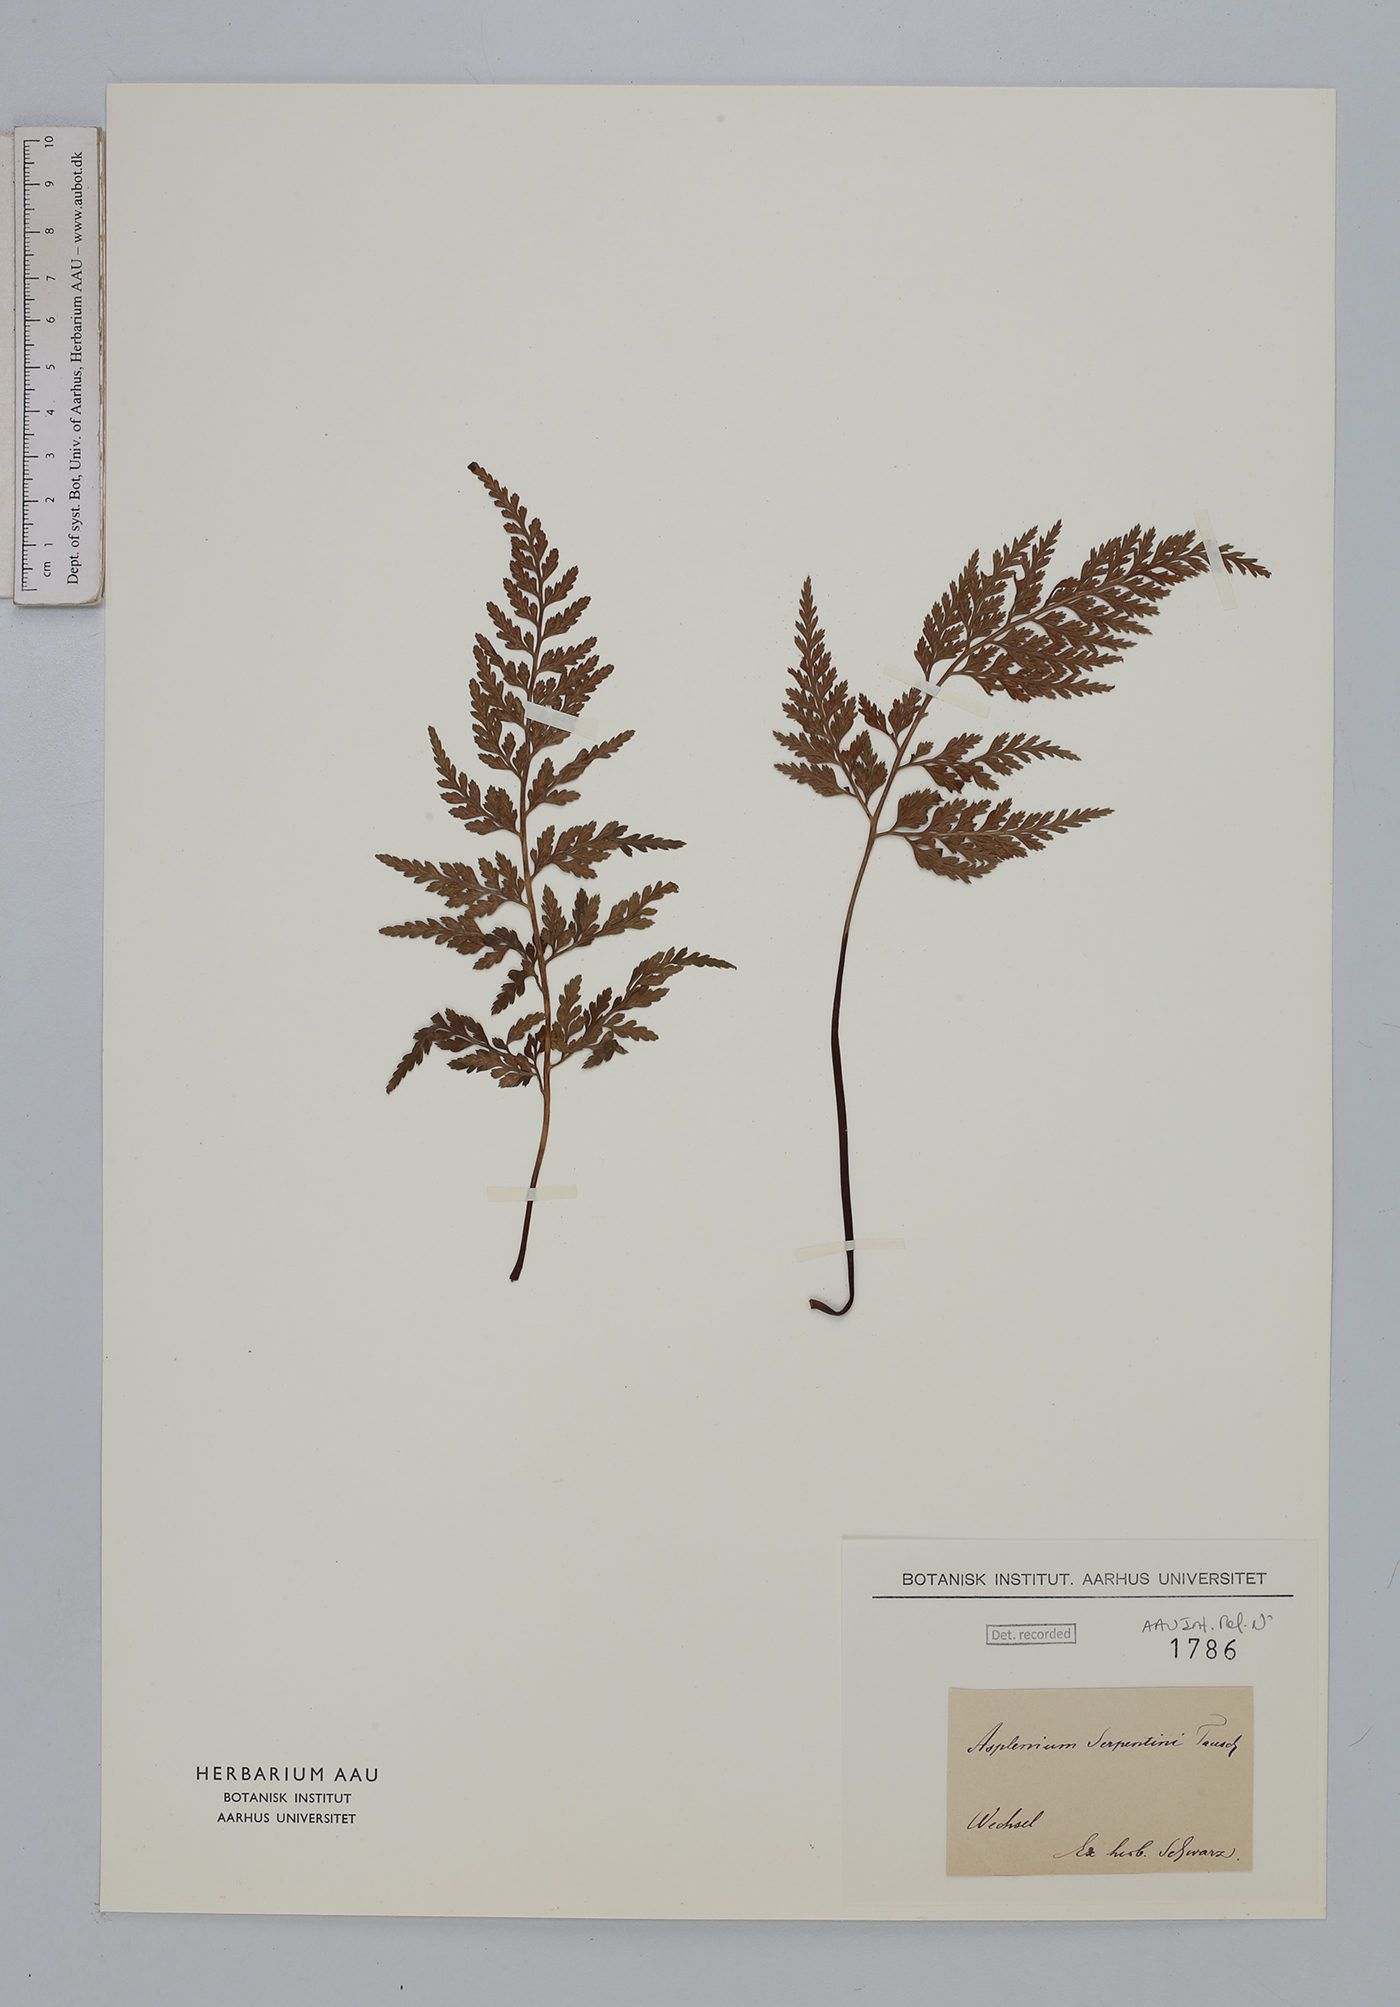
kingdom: Plantae
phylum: Tracheophyta
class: Polypodiopsida
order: Polypodiales
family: Aspleniaceae
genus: Asplenium
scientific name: Asplenium cuneifolium
